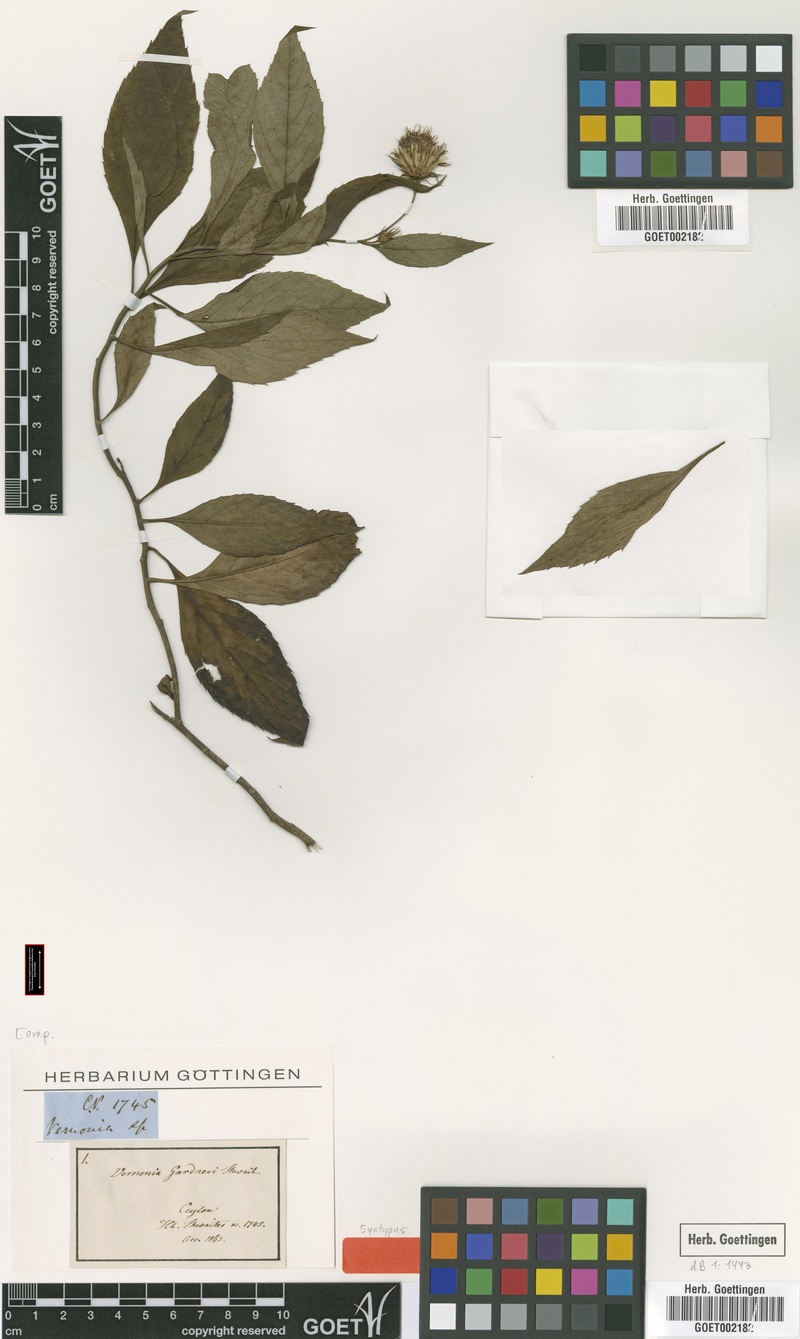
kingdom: Plantae
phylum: Tracheophyta
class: Magnoliopsida
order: Asterales
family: Asteraceae
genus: Acilepis
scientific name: Acilepis gardneri
